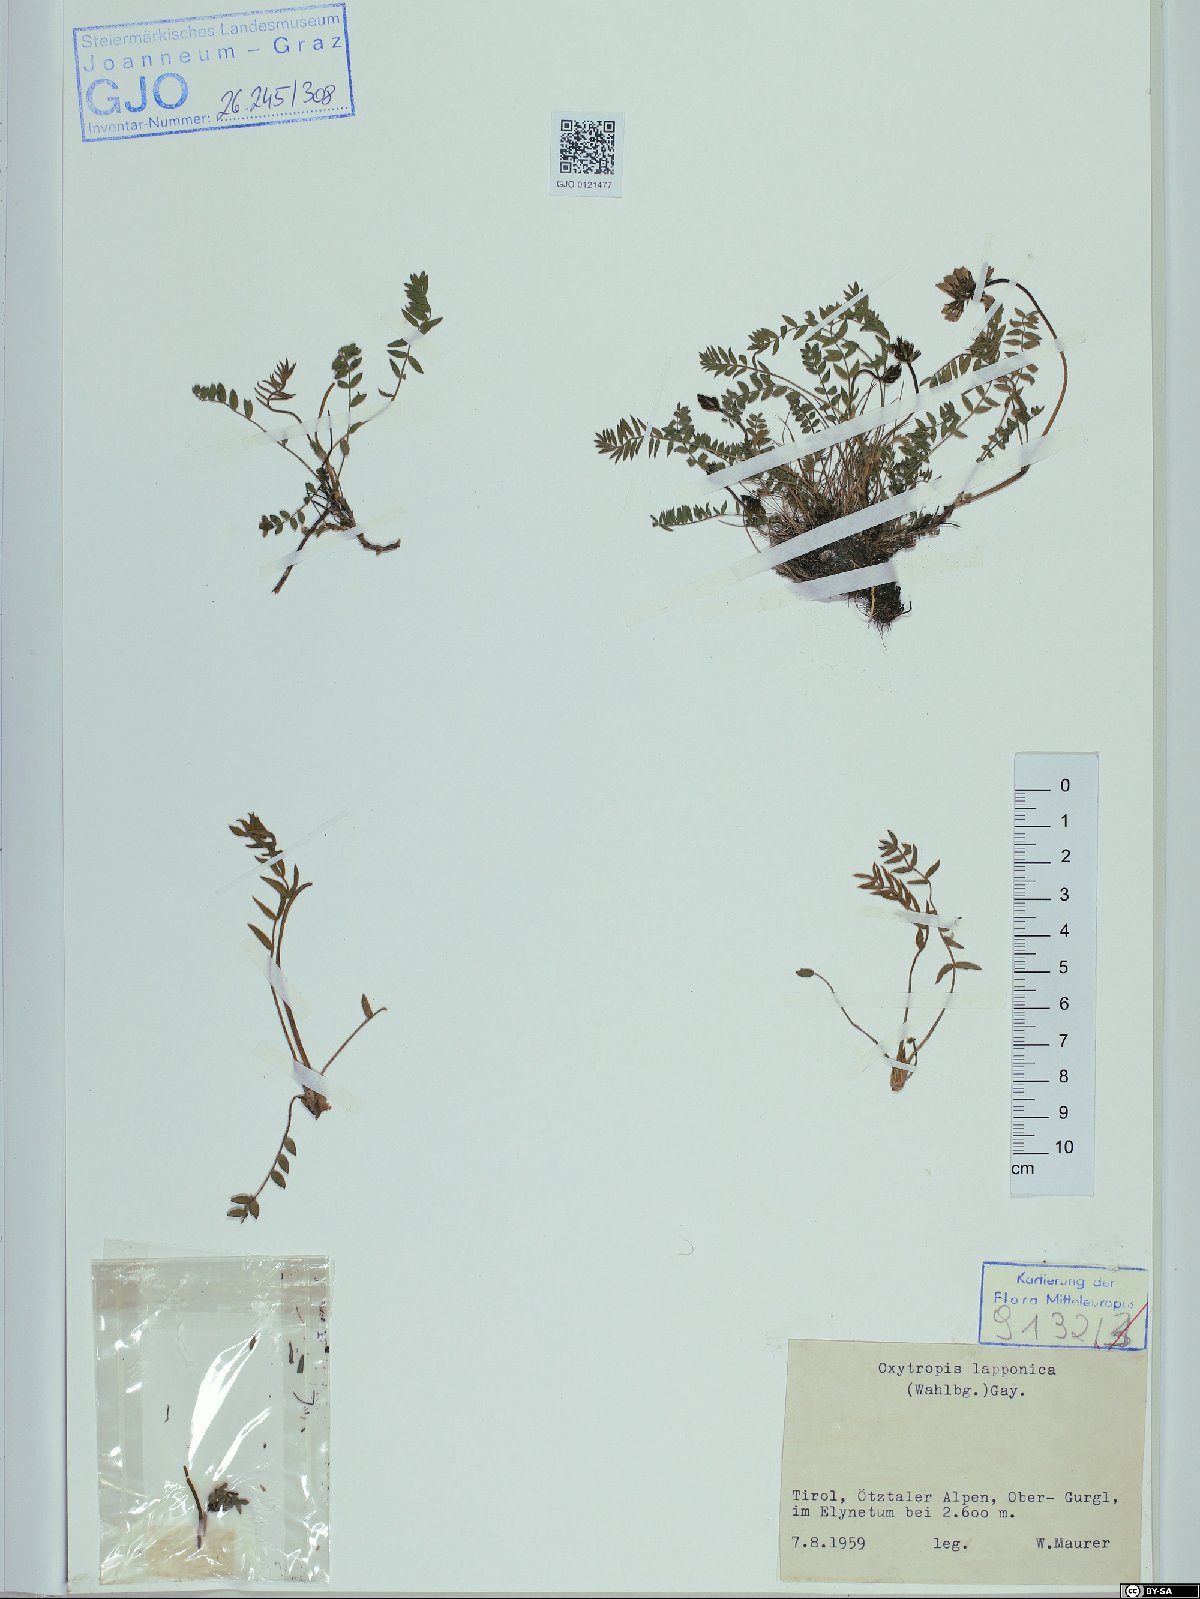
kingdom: Plantae
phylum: Tracheophyta
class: Magnoliopsida
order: Fabales
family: Fabaceae
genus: Oxytropis
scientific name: Oxytropis lapponica
